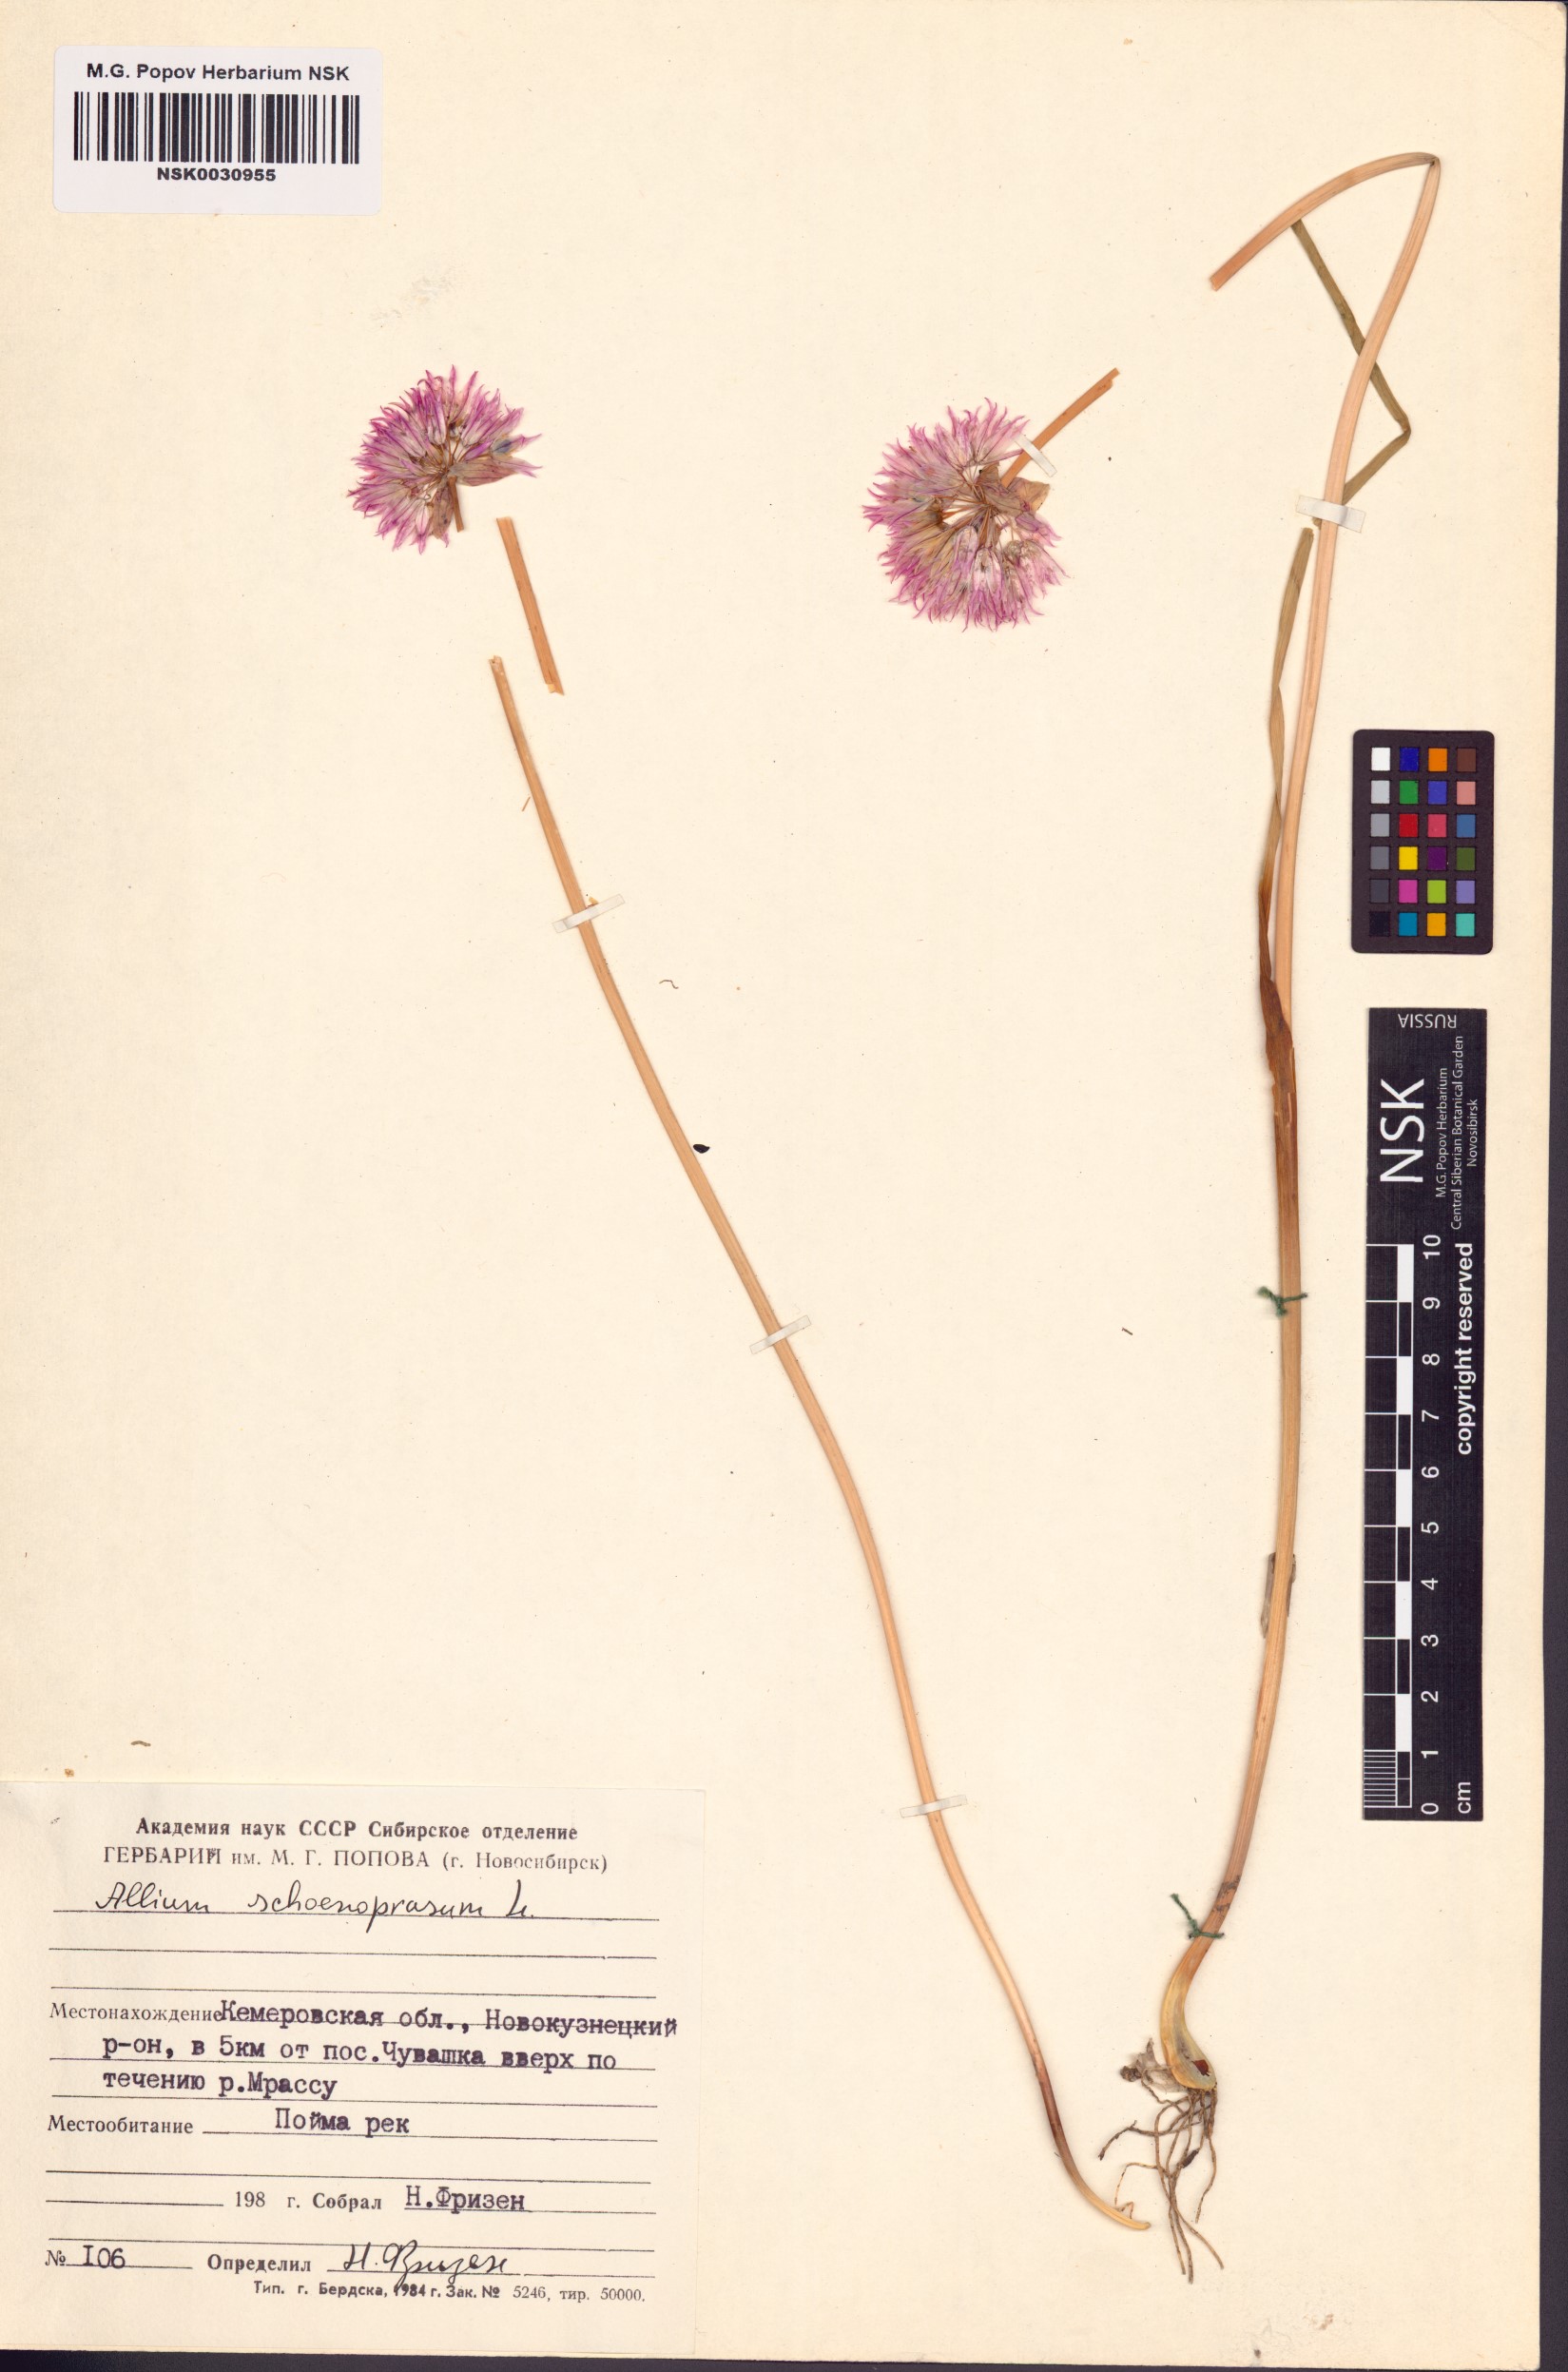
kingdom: Plantae
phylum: Tracheophyta
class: Liliopsida
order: Asparagales
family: Amaryllidaceae
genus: Allium
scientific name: Allium schoenoprasum
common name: Chives
